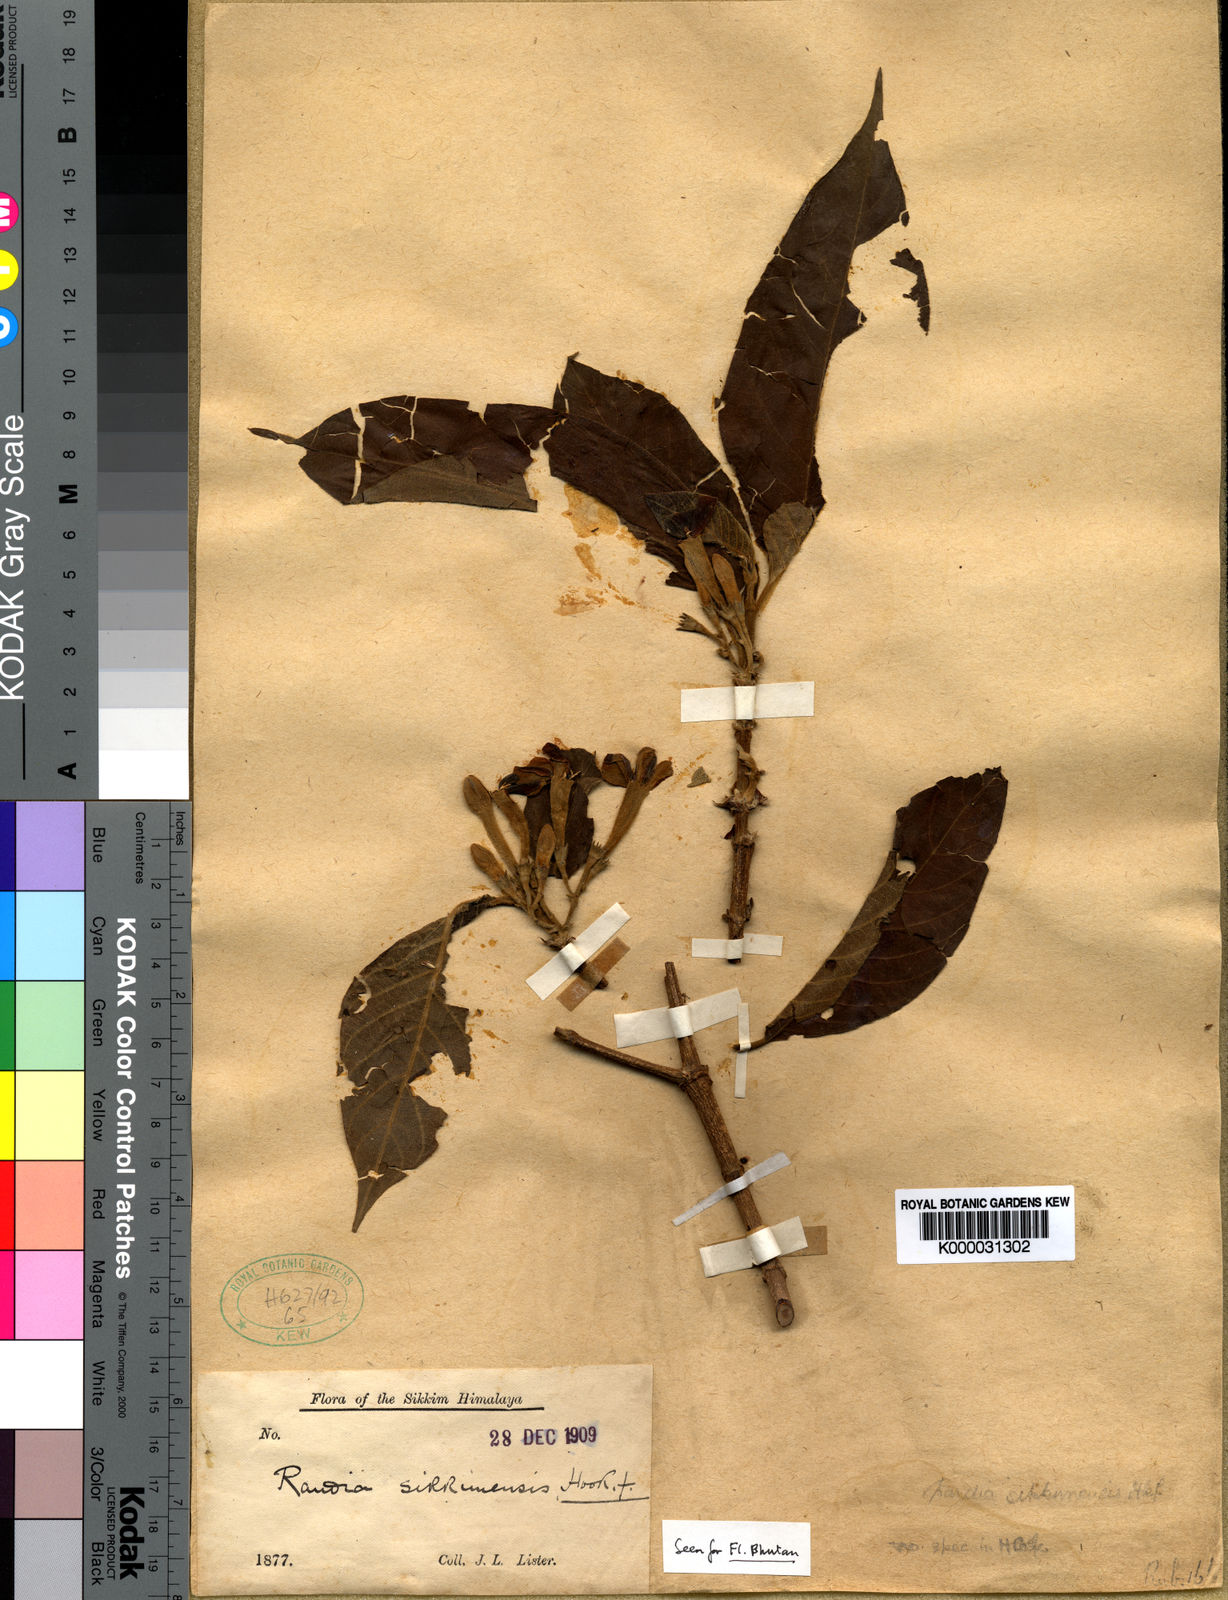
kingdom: Plantae
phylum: Tracheophyta
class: Magnoliopsida
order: Gentianales
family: Rubiaceae
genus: Porterandia
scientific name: Porterandia
